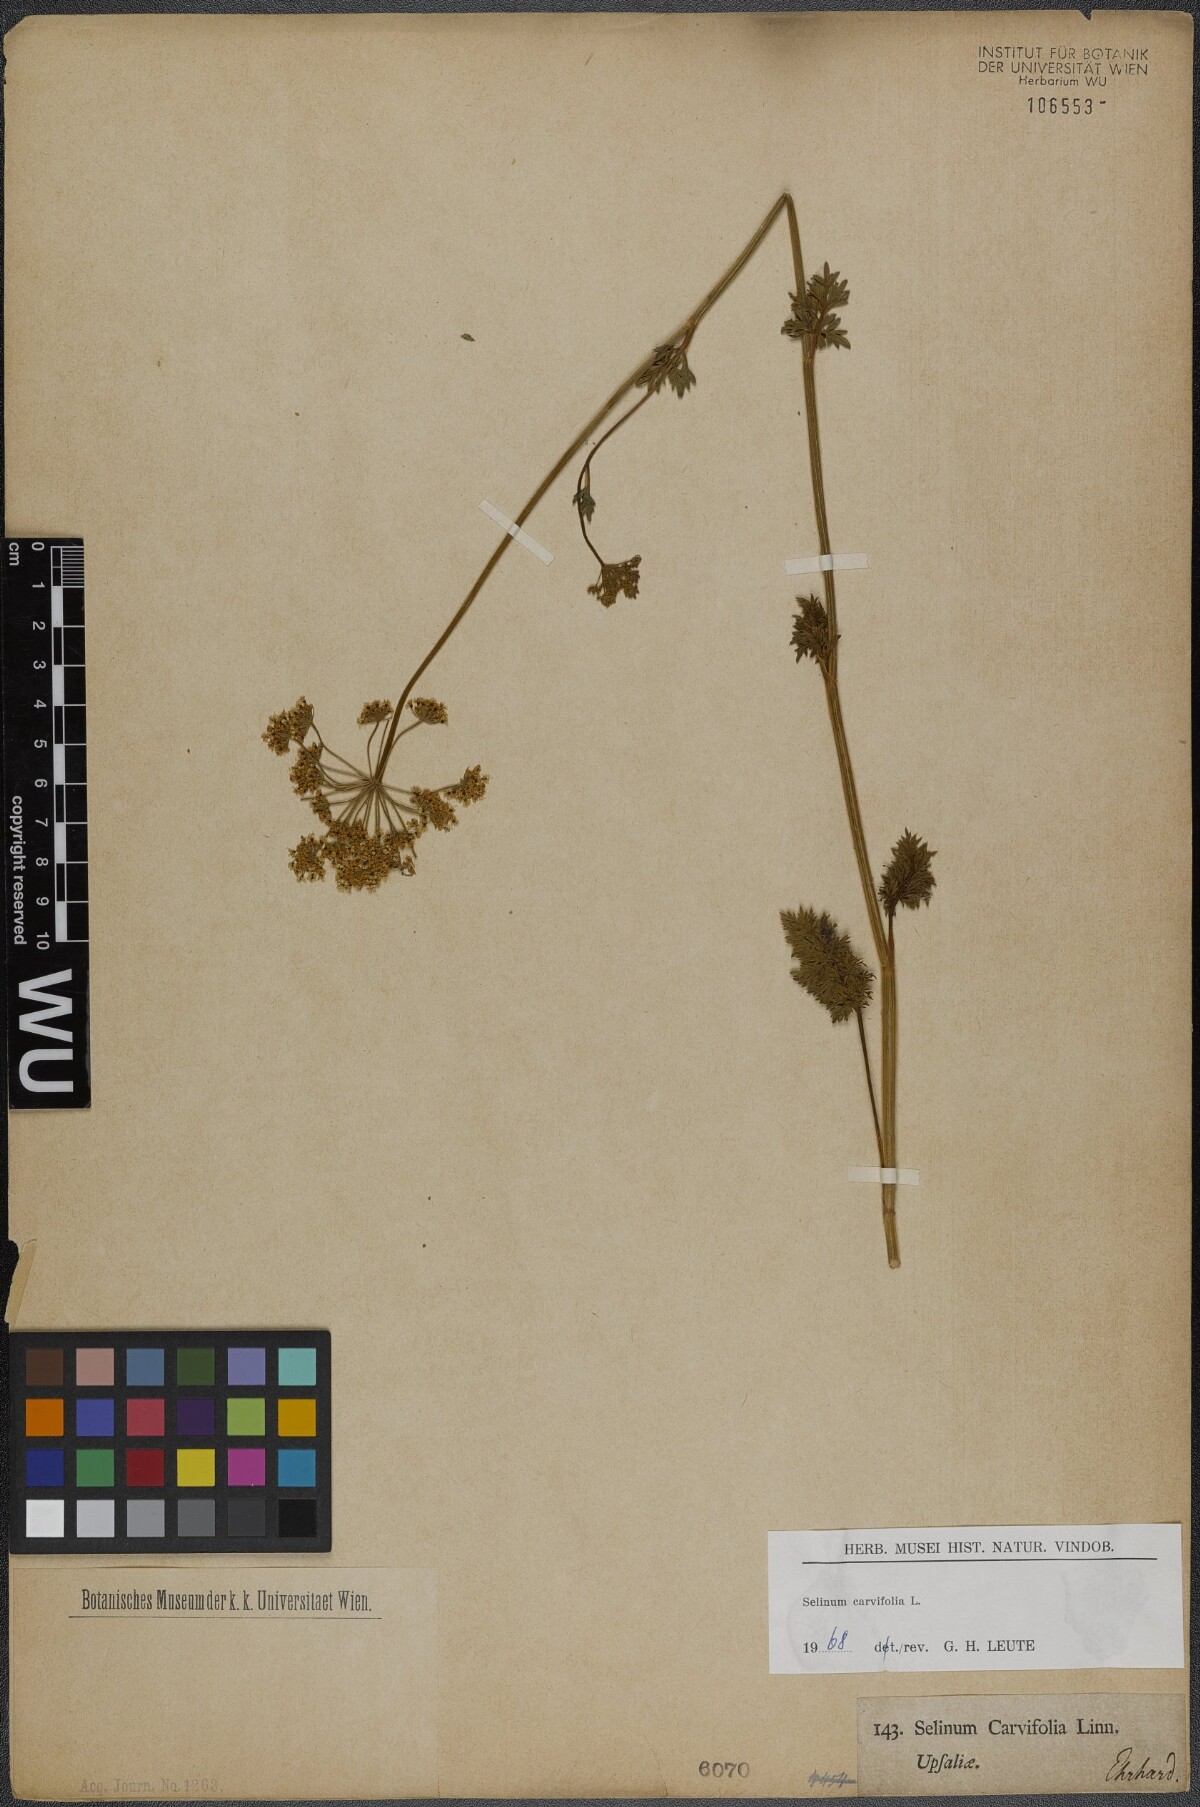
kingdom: Plantae
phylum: Tracheophyta
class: Magnoliopsida
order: Apiales
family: Apiaceae
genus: Selinum
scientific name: Selinum carvifolia
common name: Cambridge milk-parsley
